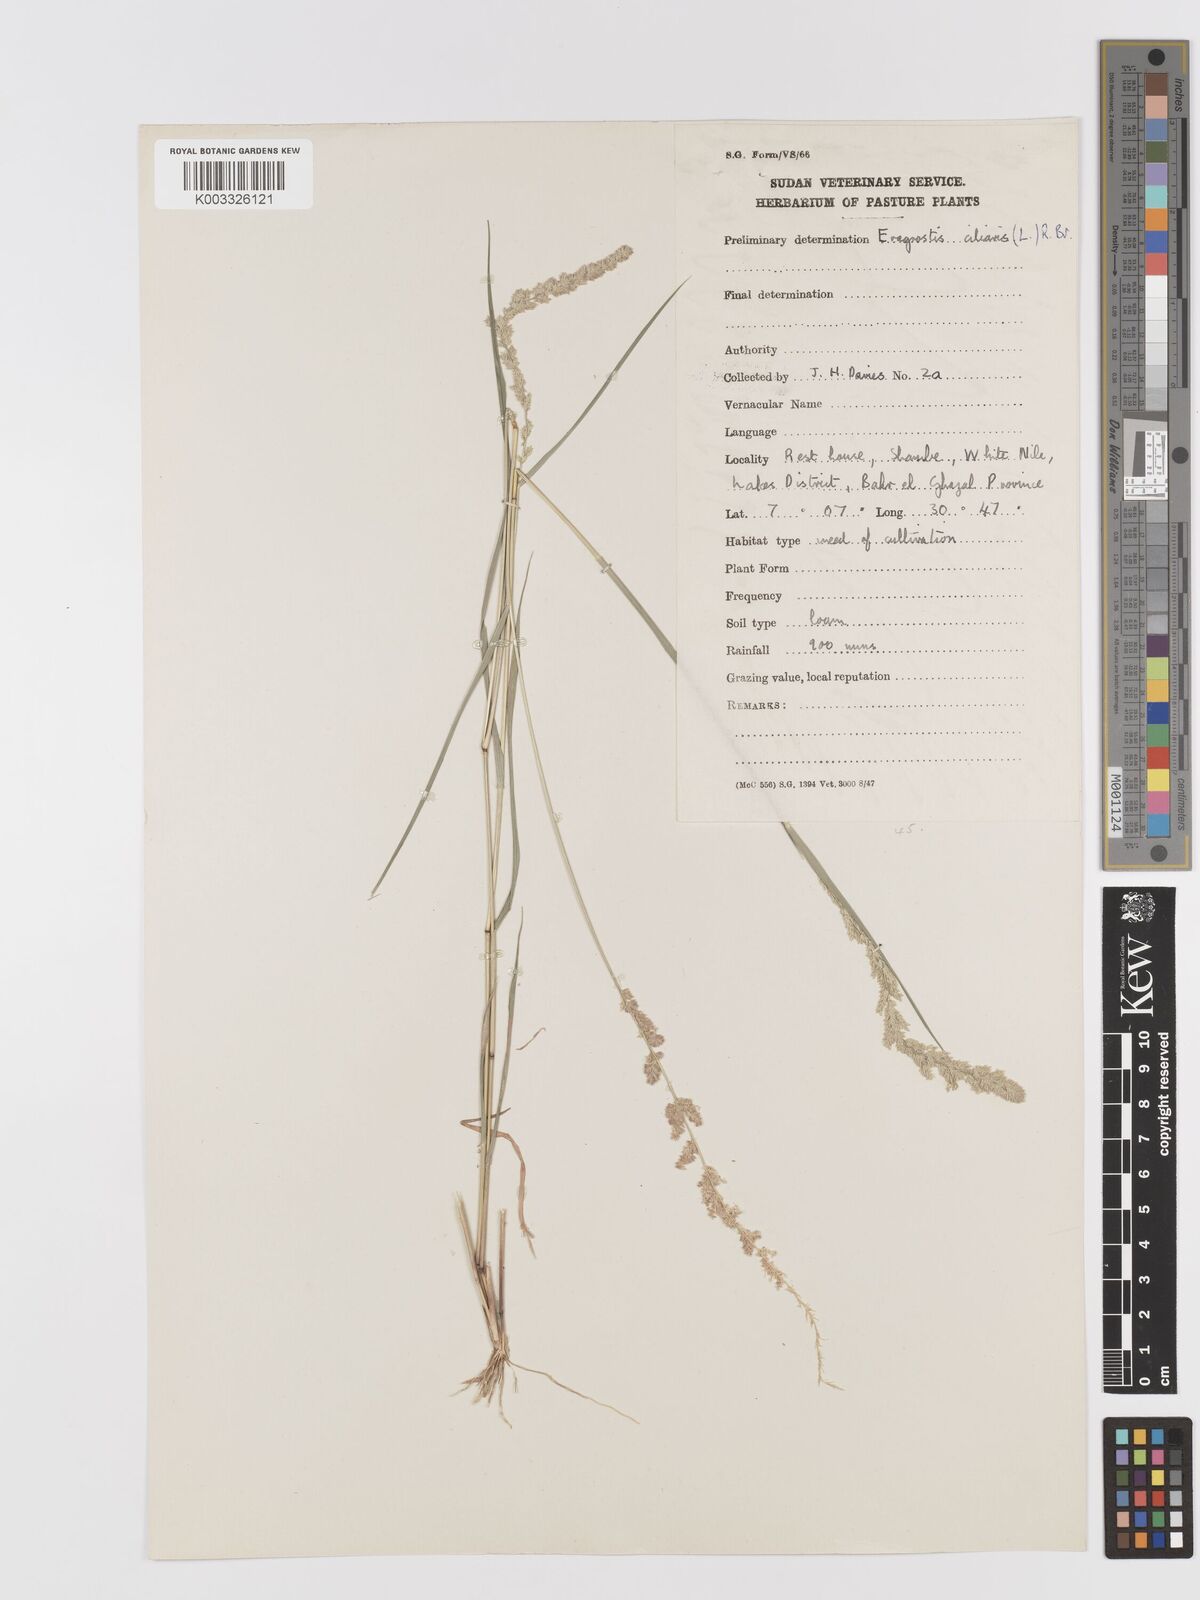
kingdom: Plantae
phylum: Tracheophyta
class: Liliopsida
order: Poales
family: Poaceae
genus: Eragrostis
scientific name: Eragrostis ciliaris
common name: Gophertail lovegrass
